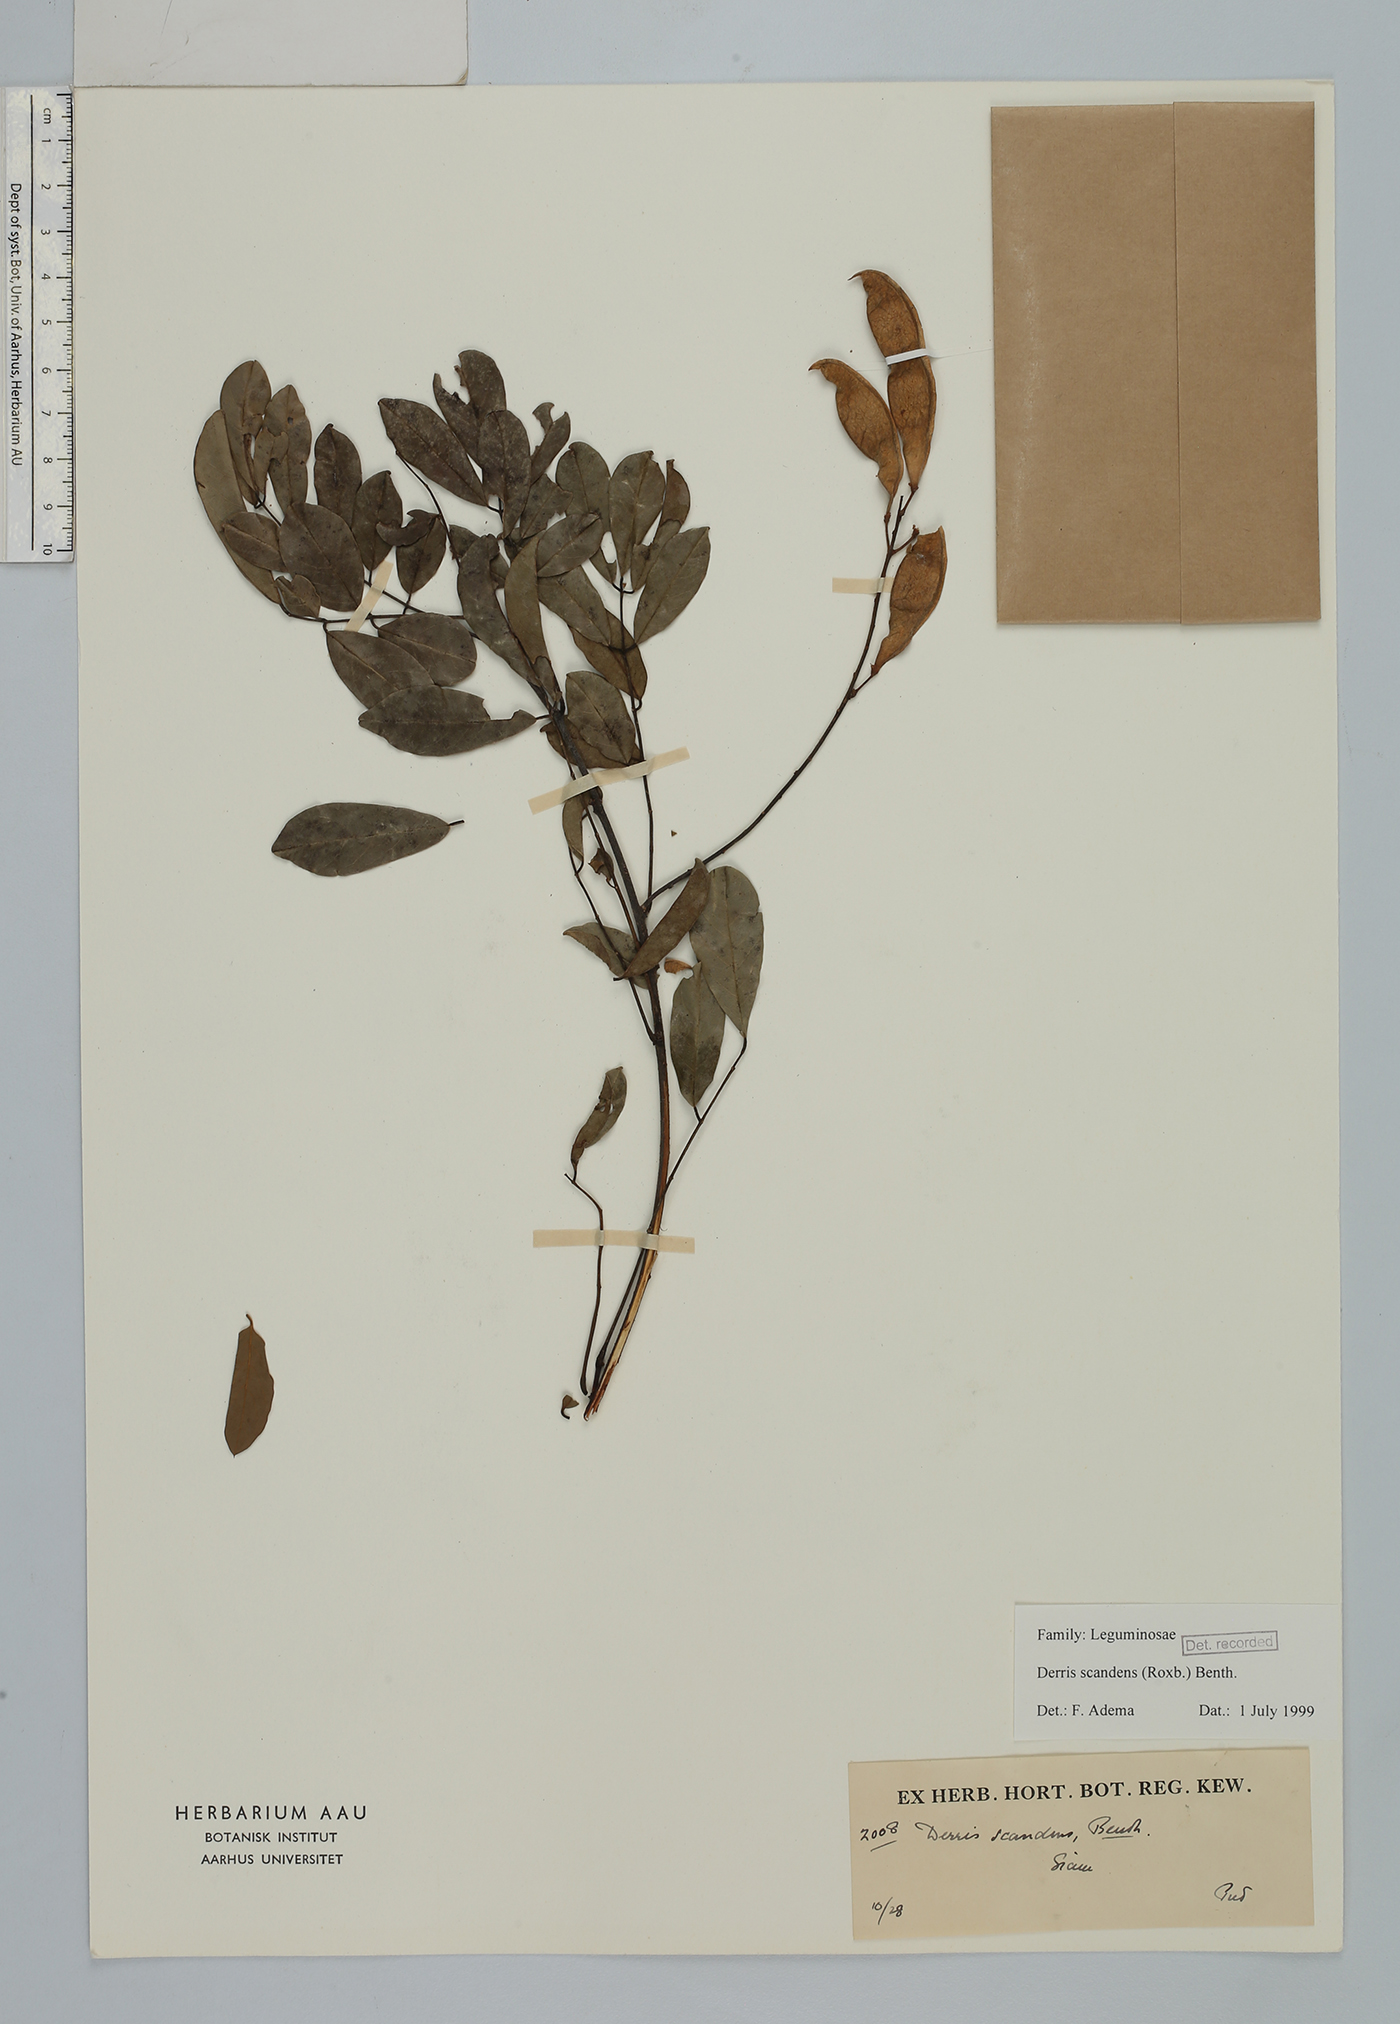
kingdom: Plantae
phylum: Tracheophyta
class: Magnoliopsida
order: Fabales
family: Fabaceae
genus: Brachypterum
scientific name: Brachypterum scandens
